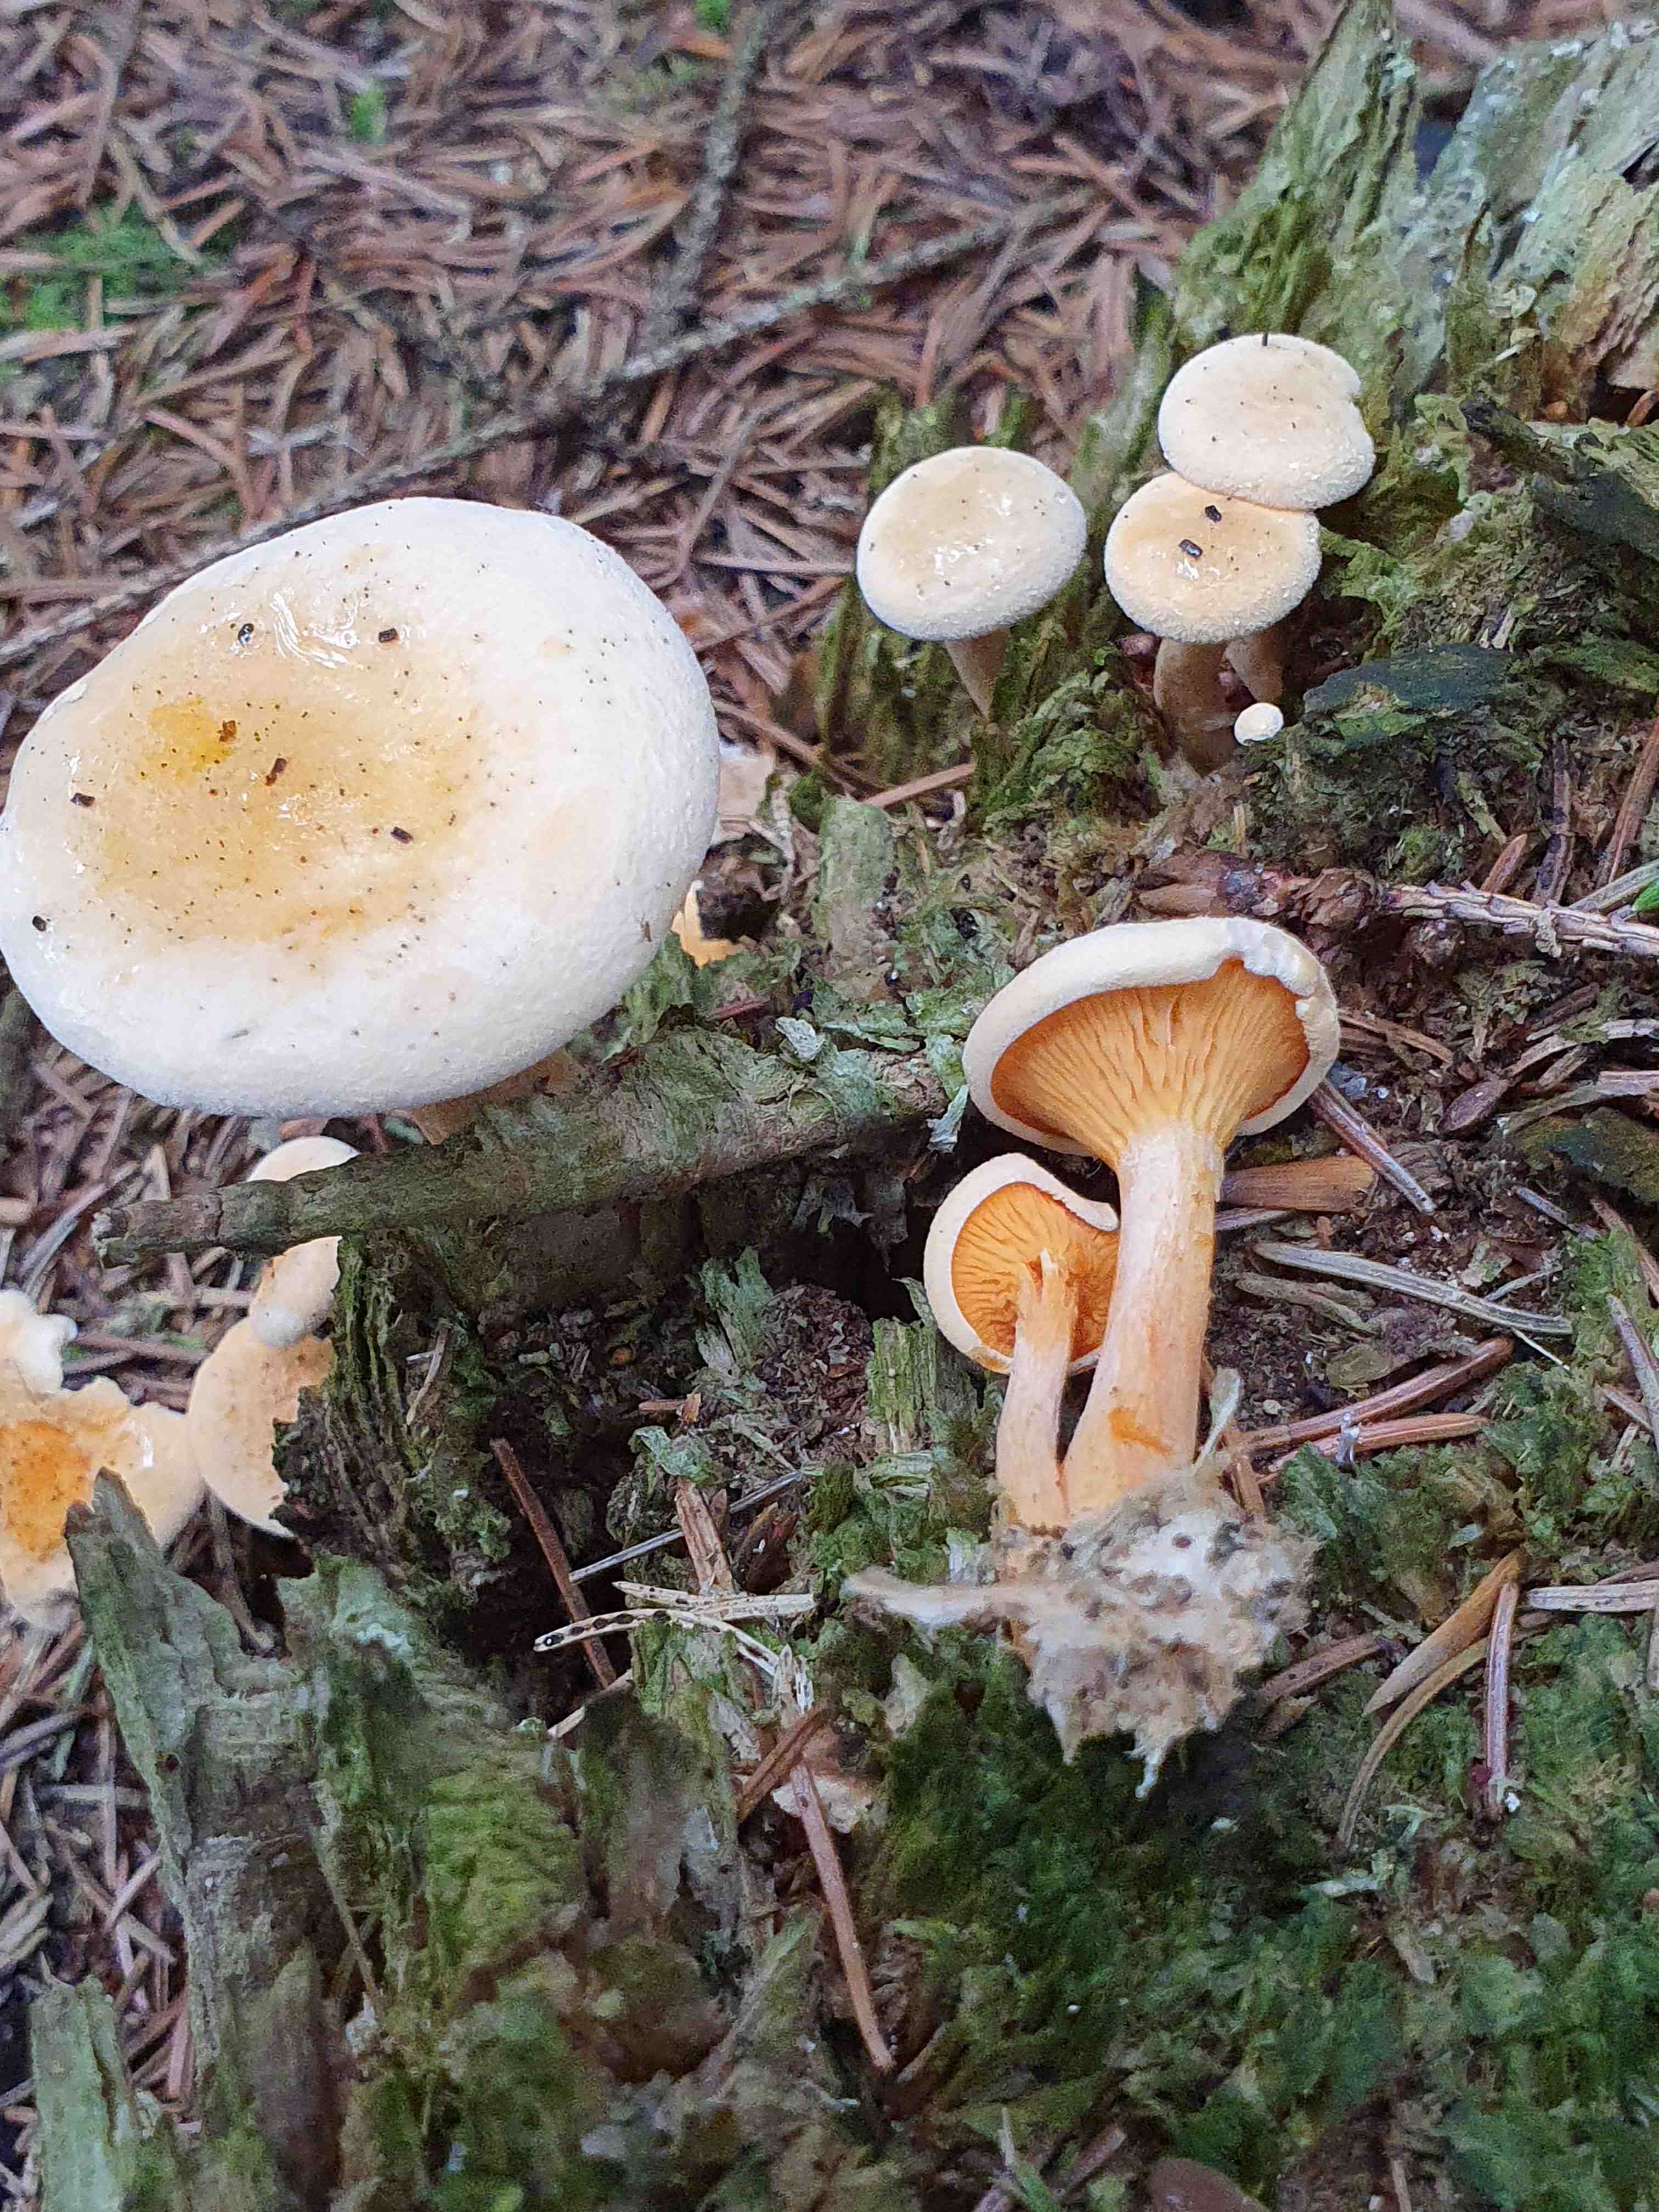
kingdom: Fungi
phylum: Basidiomycota
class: Agaricomycetes
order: Boletales
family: Hygrophoropsidaceae
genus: Hygrophoropsis
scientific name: Hygrophoropsis aurantiaca
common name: almindelig orangekantarel
